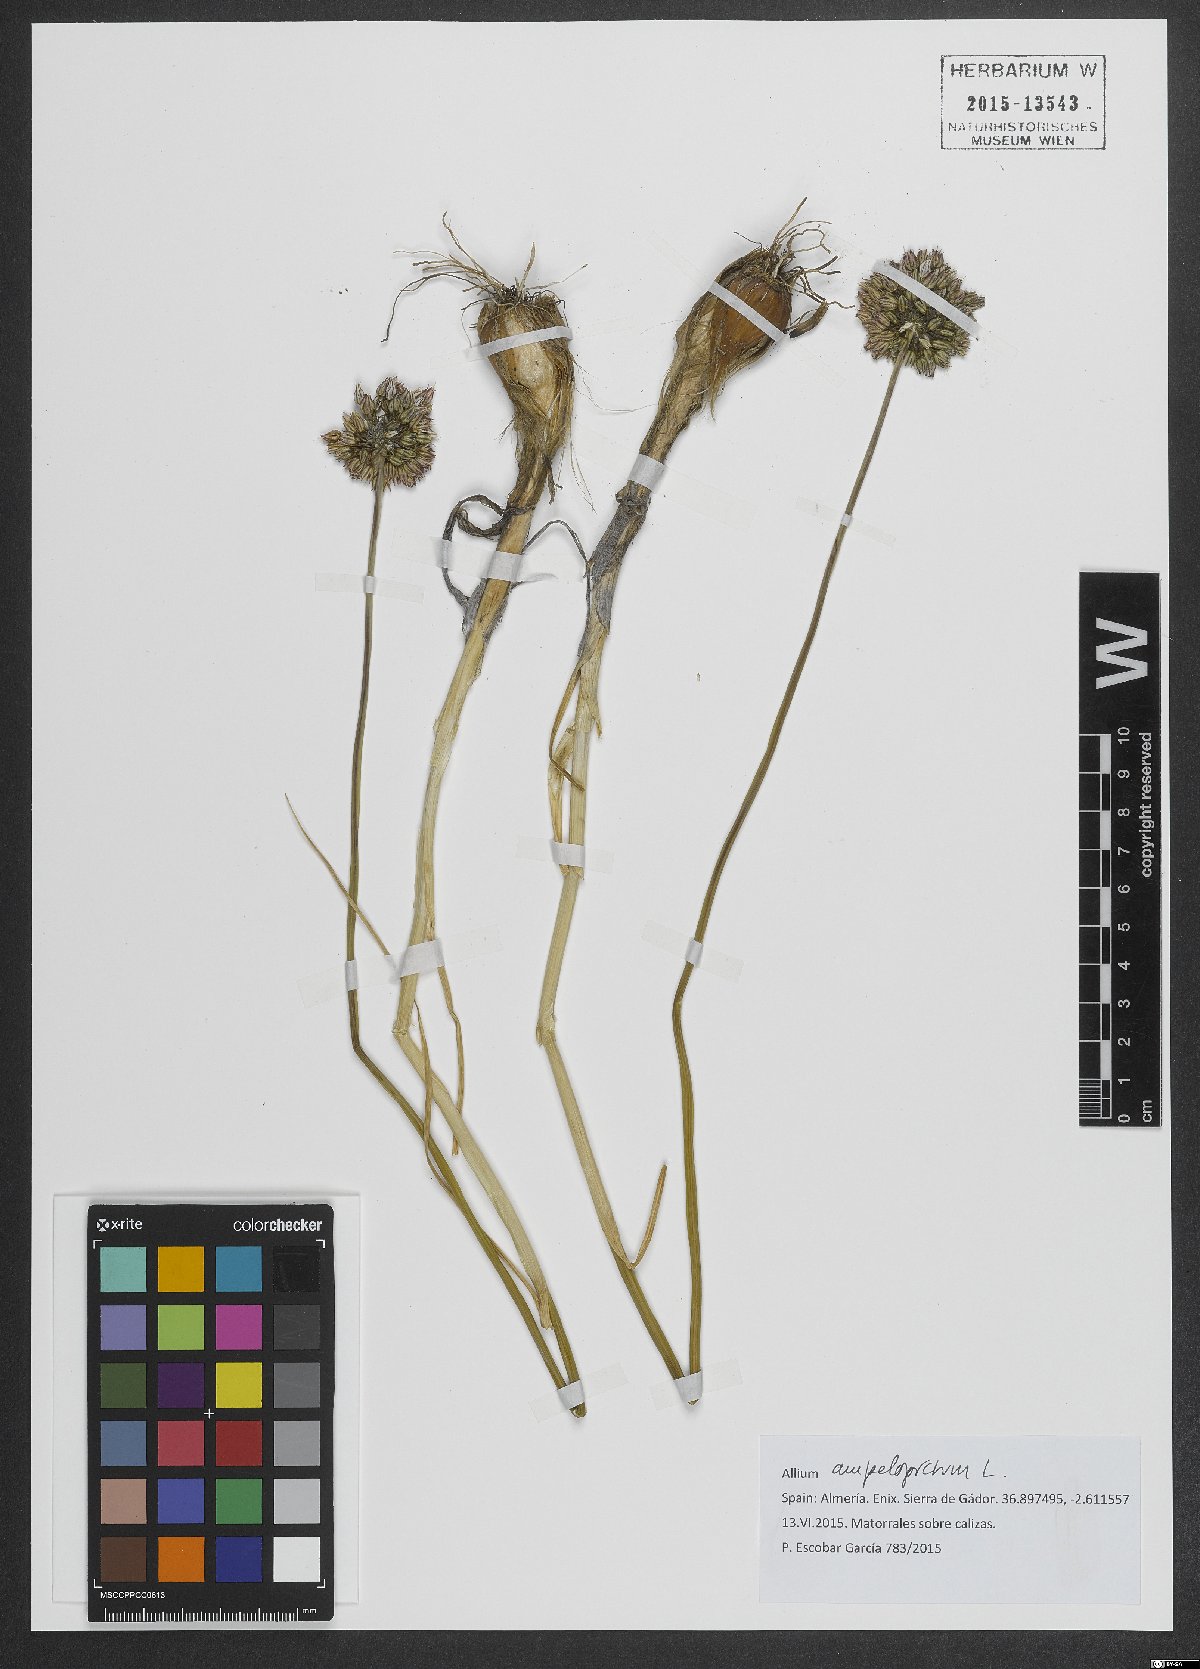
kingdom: Plantae
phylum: Tracheophyta
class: Liliopsida
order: Asparagales
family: Amaryllidaceae
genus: Allium
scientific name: Allium ampeloprasum
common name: Wild leek
